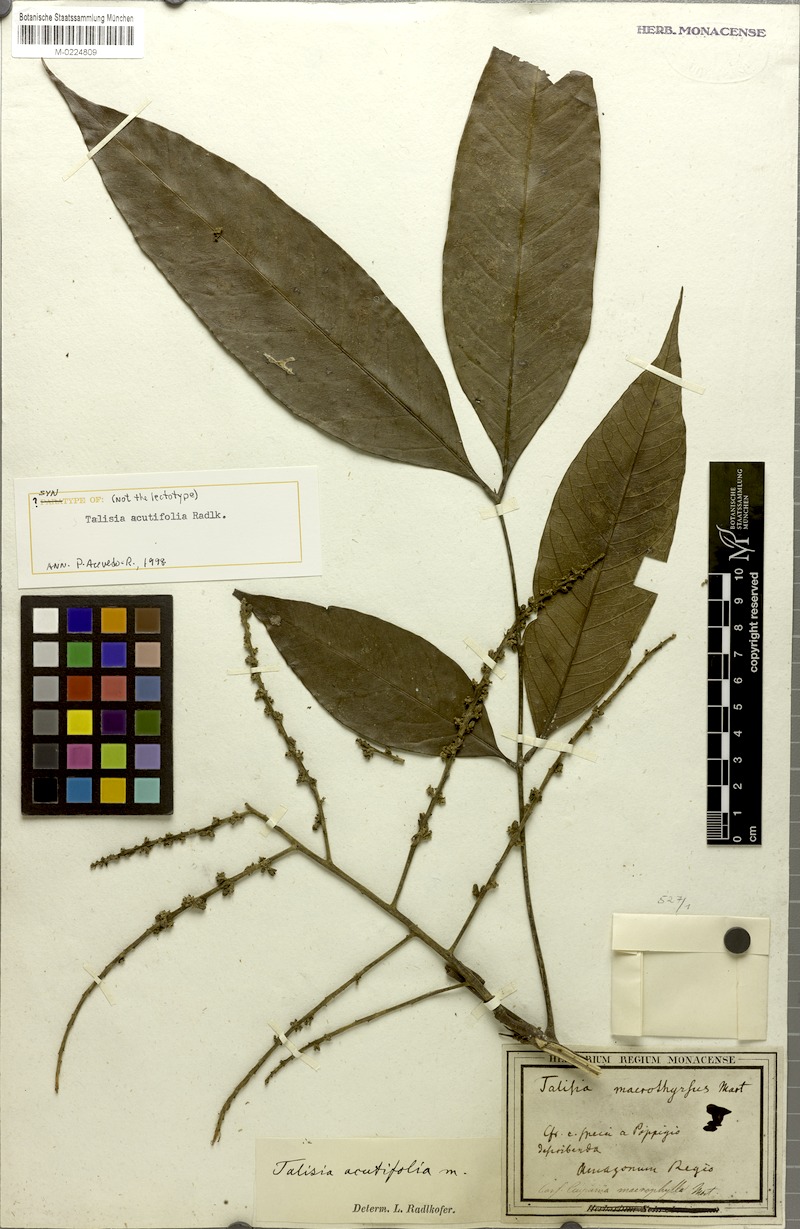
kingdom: Plantae
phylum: Tracheophyta
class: Magnoliopsida
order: Sapindales
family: Sapindaceae
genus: Talisia
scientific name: Talisia acutifolia
